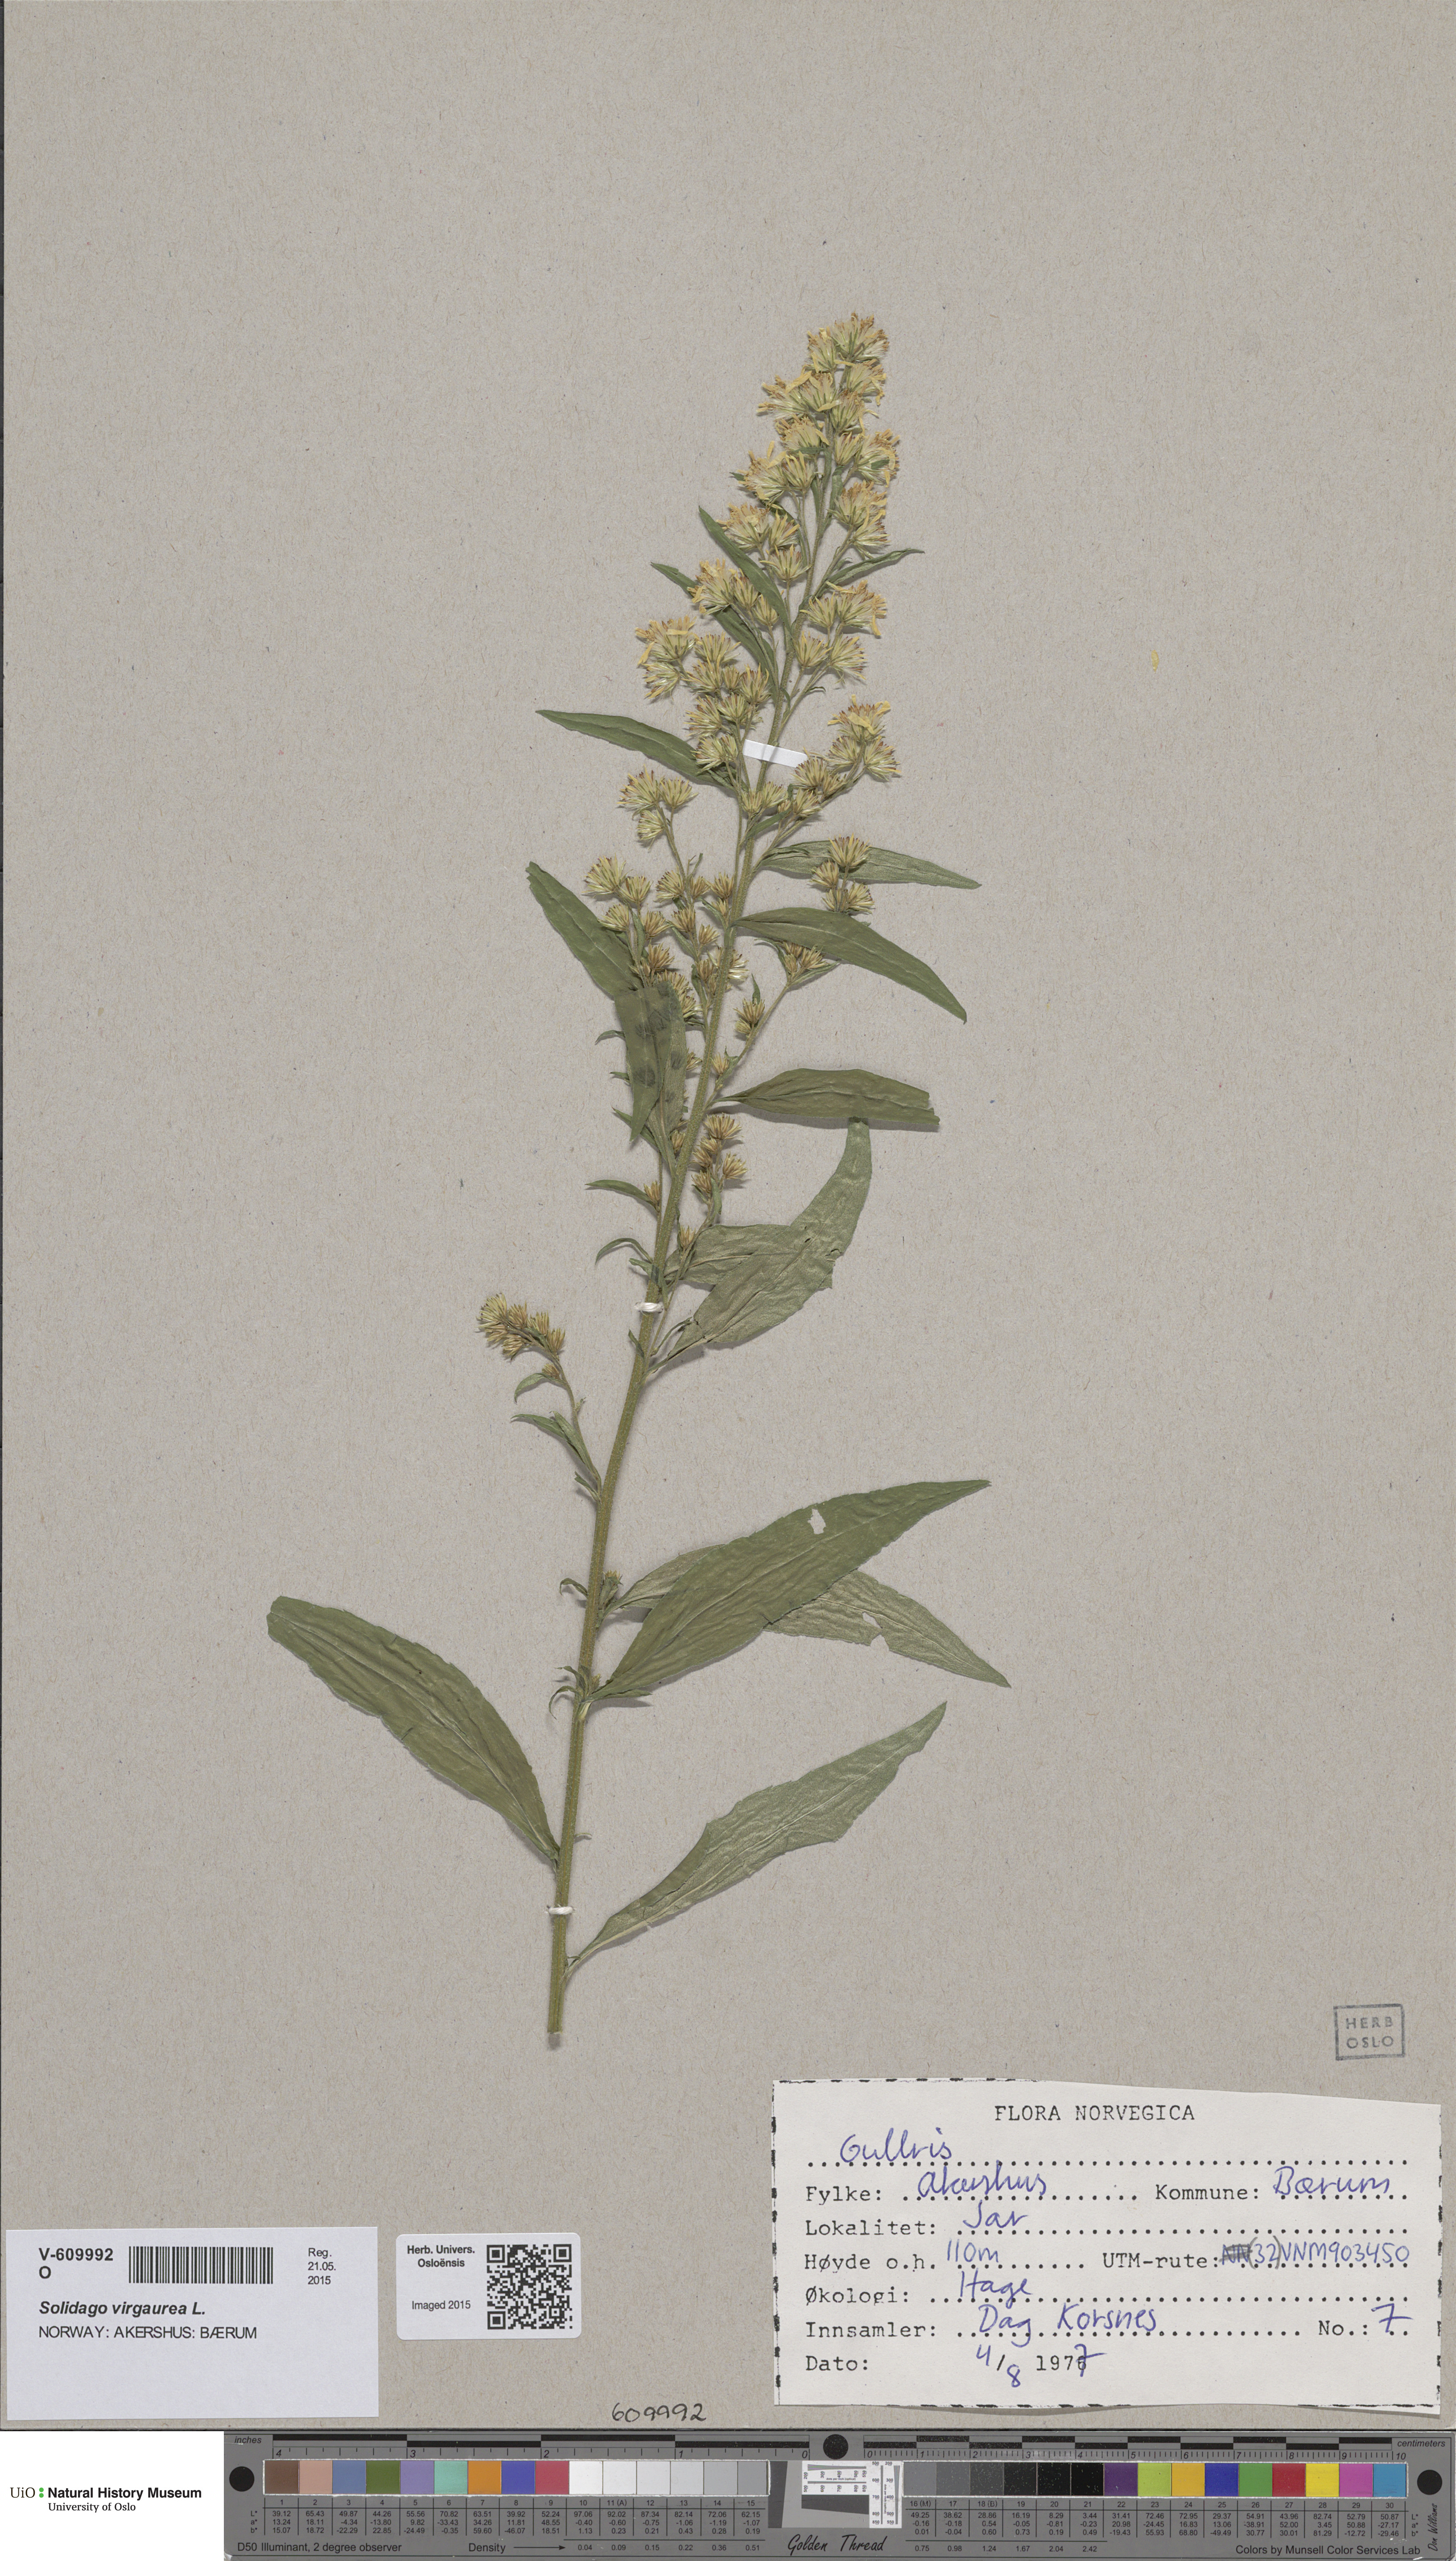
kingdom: Plantae
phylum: Tracheophyta
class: Magnoliopsida
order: Asterales
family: Asteraceae
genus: Solidago
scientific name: Solidago virgaurea
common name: Goldenrod
